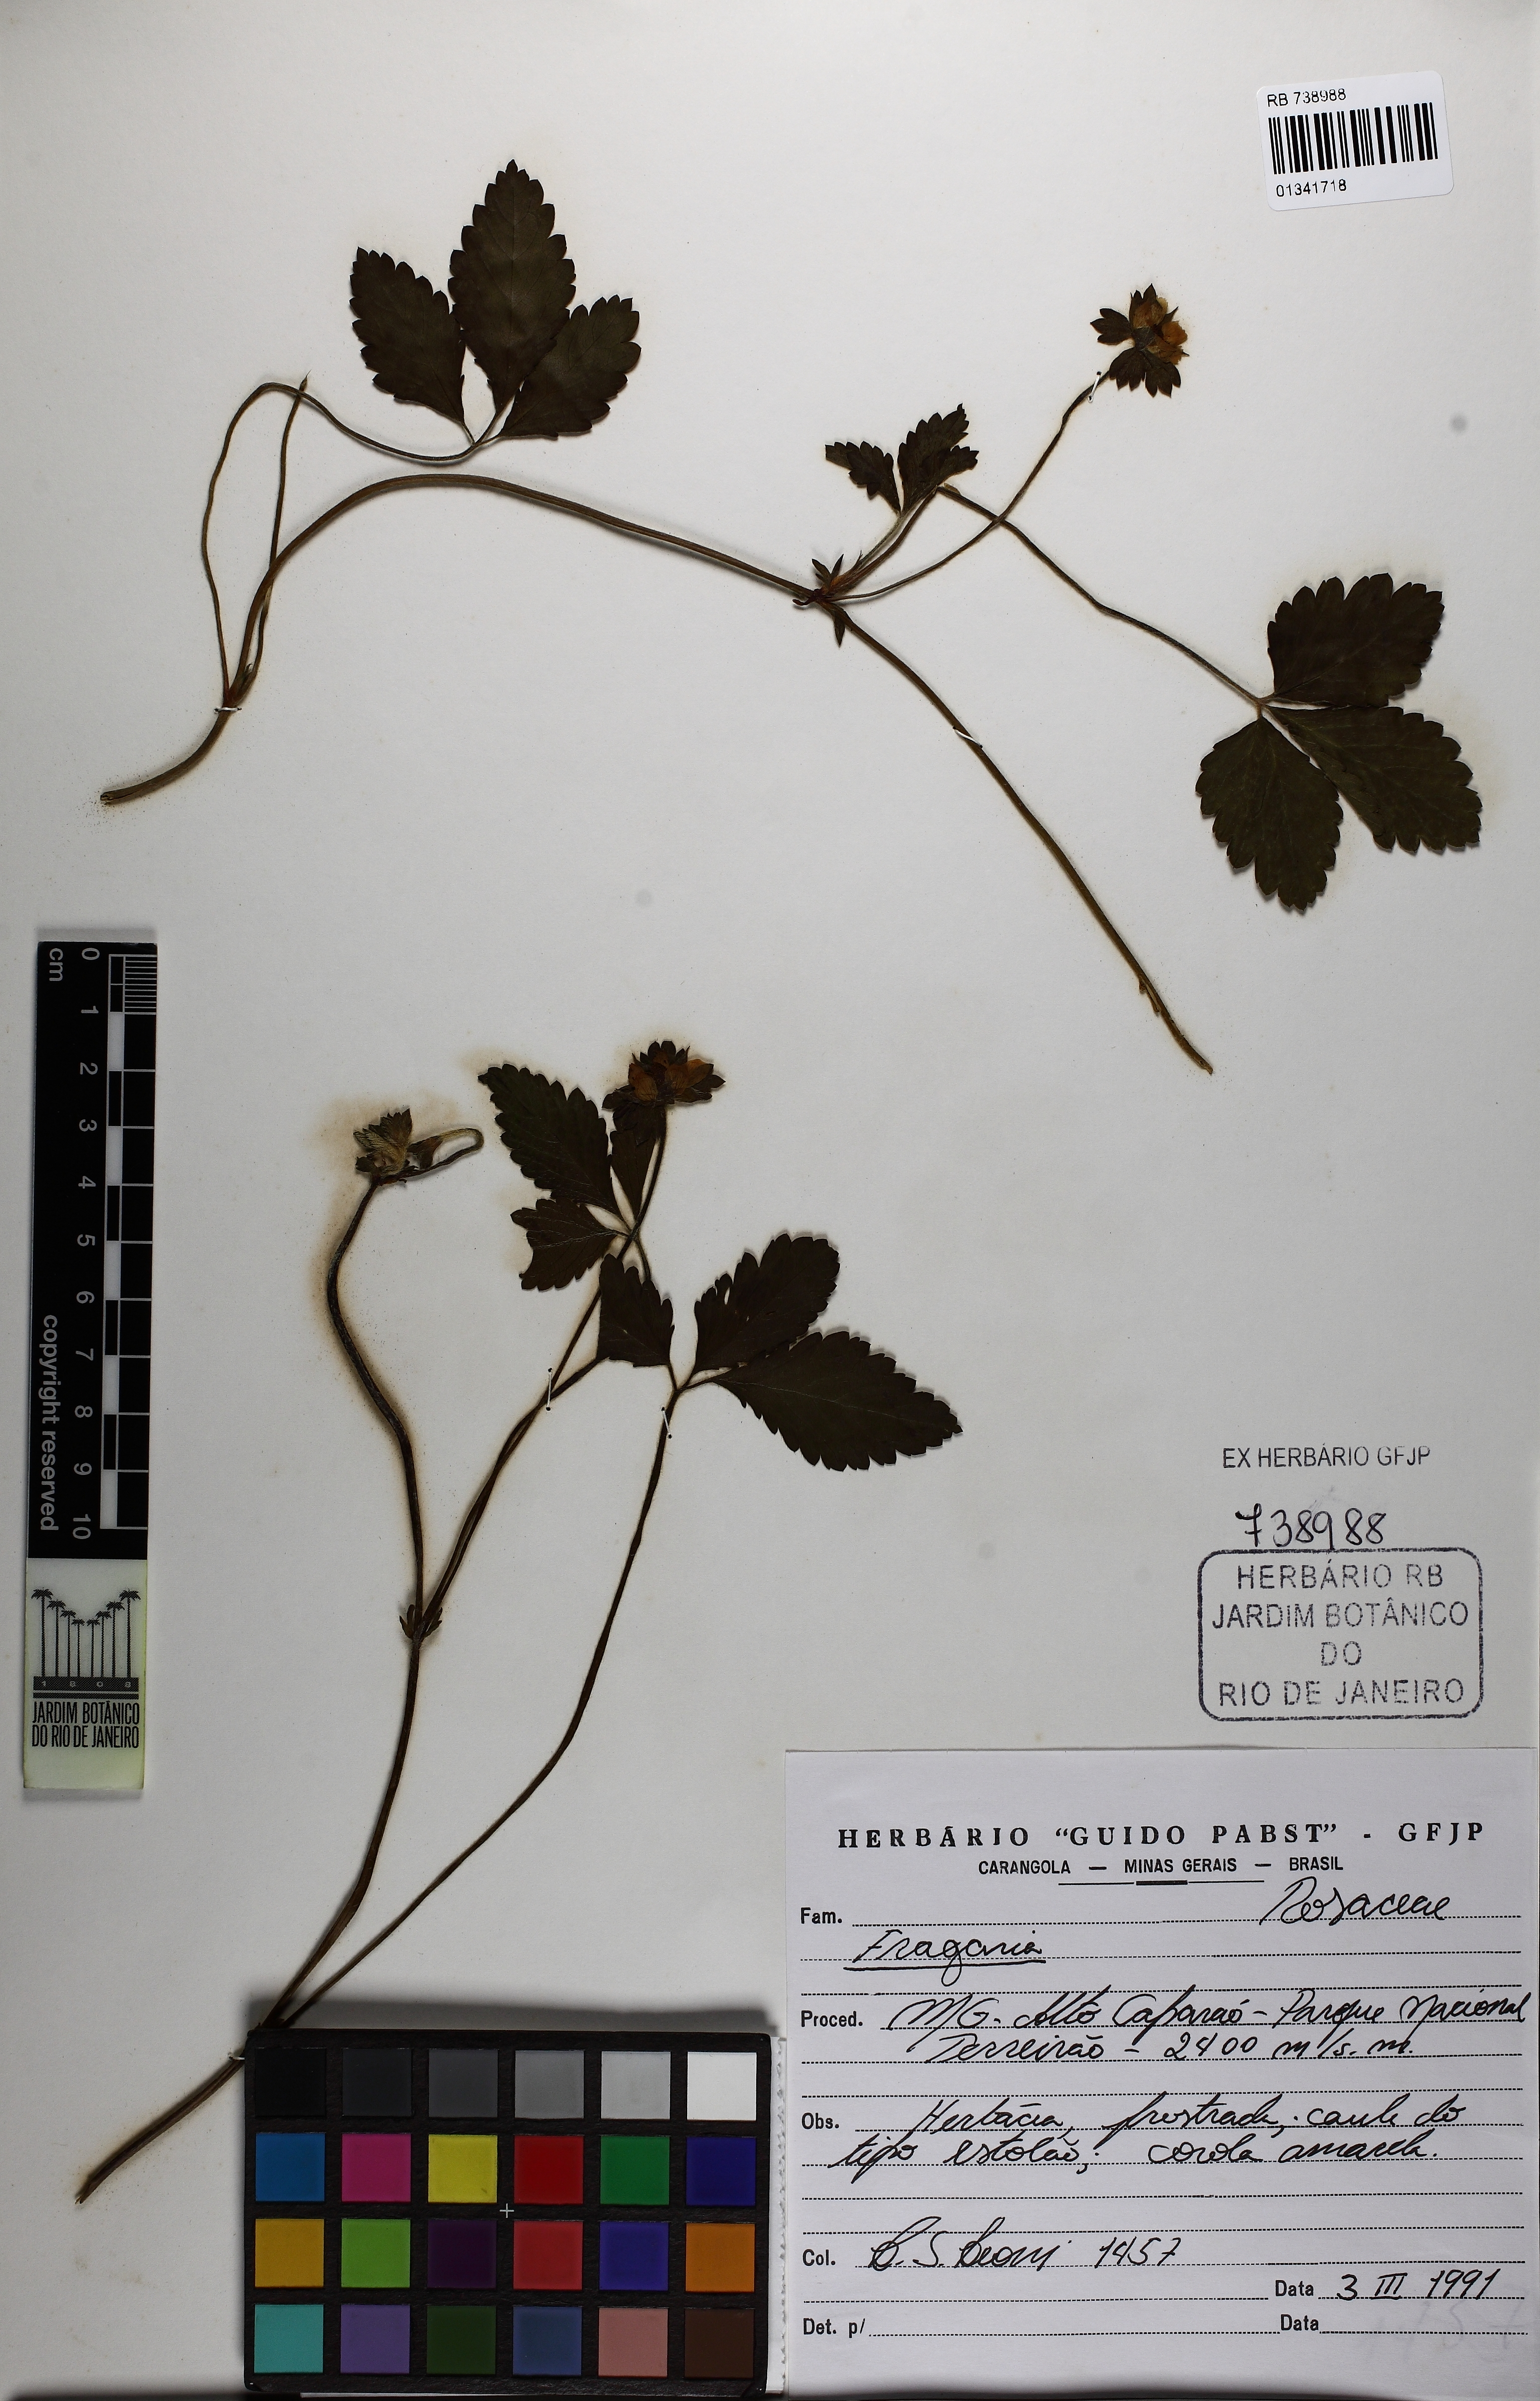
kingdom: Plantae
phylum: Tracheophyta
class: Magnoliopsida
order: Rosales
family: Rosaceae
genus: Fragaria
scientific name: Fragaria
